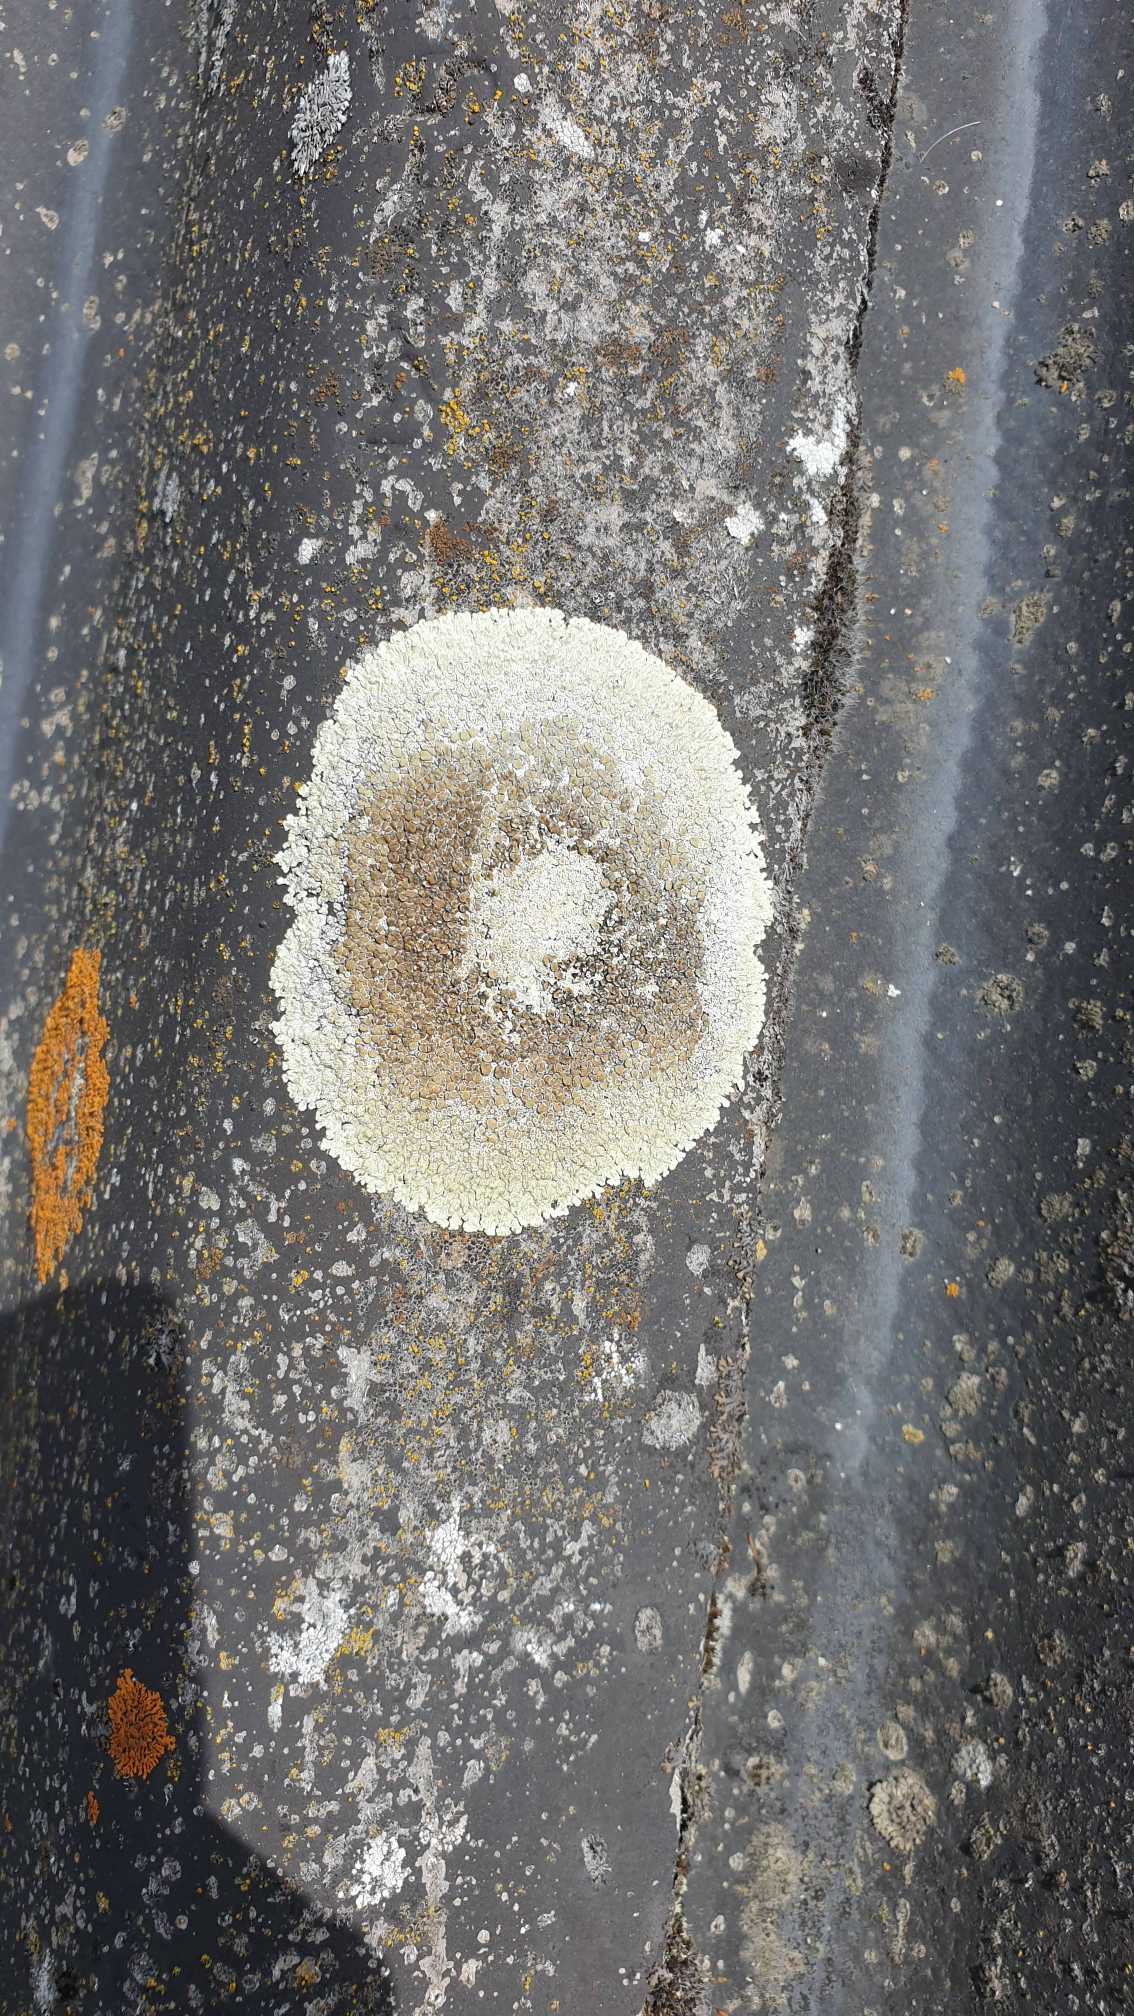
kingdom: Fungi
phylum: Ascomycota
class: Lecanoromycetes
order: Lecanorales
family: Lecanoraceae
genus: Protoparmeliopsis
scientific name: Protoparmeliopsis muralis
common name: Randfliget kantskivelav
